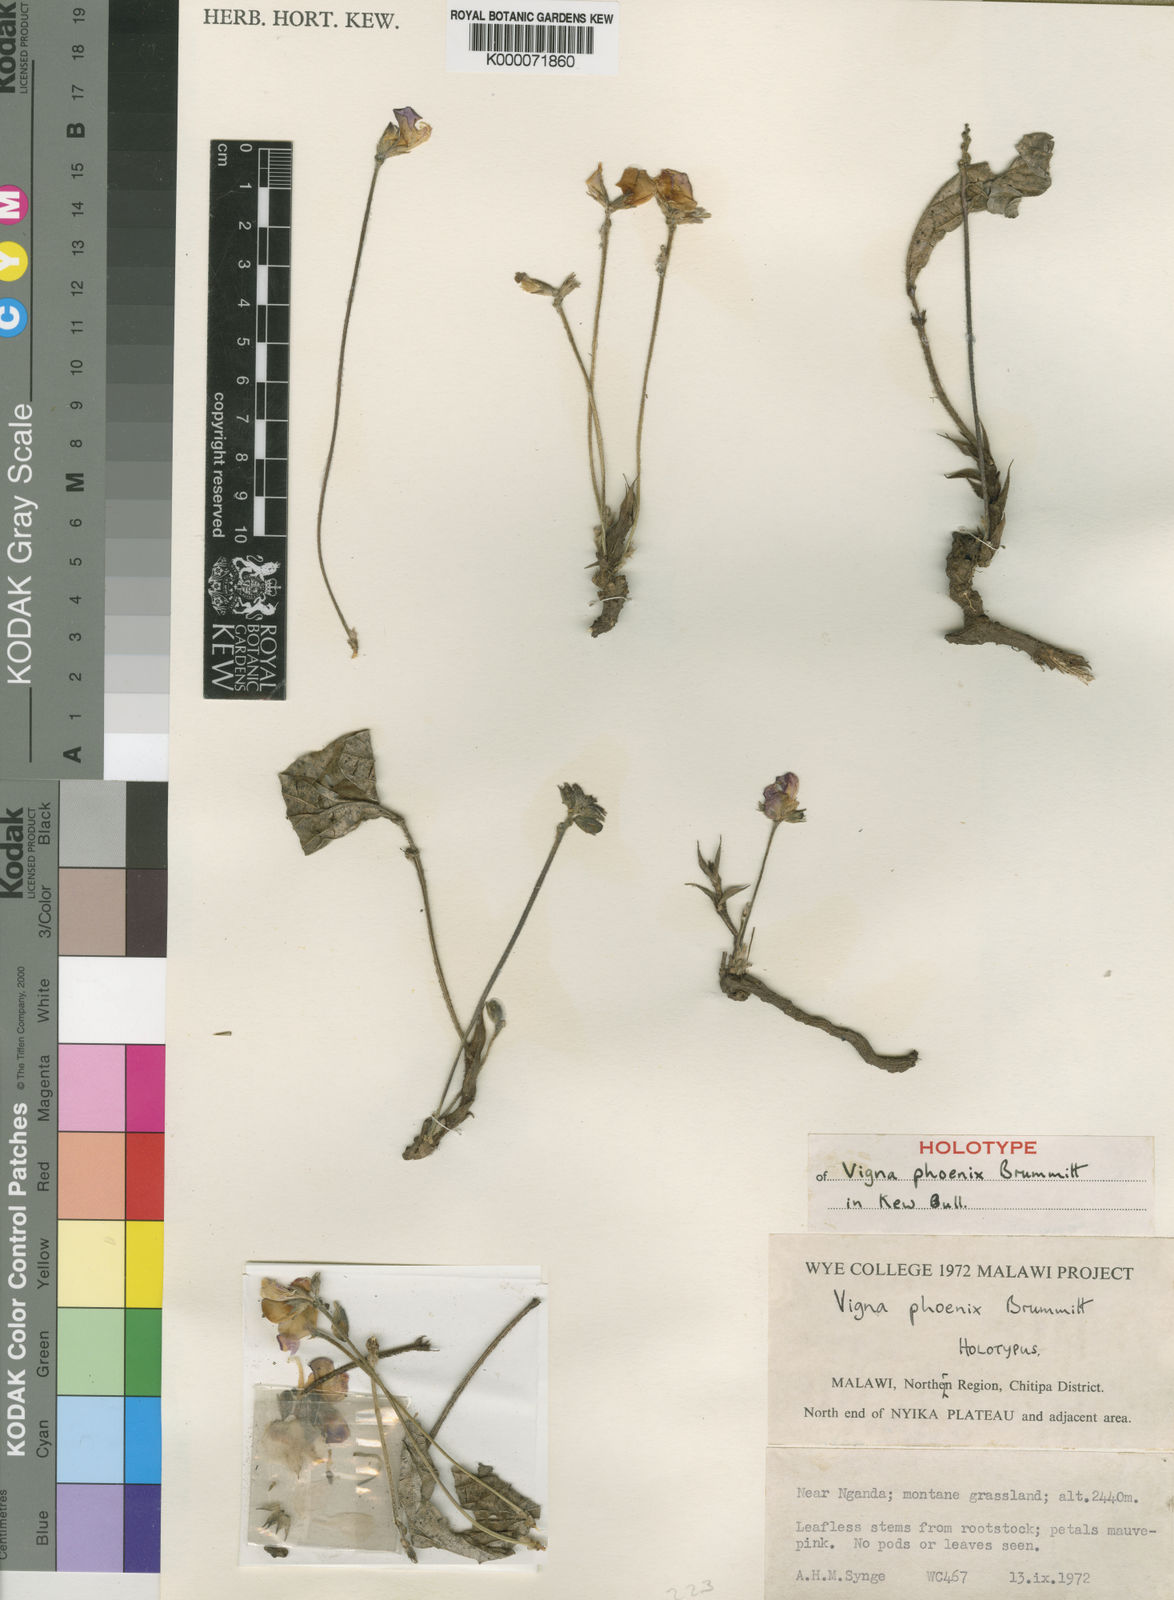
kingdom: Plantae
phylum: Tracheophyta
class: Magnoliopsida
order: Fabales
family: Fabaceae
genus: Vigna
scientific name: Vigna phoenix
